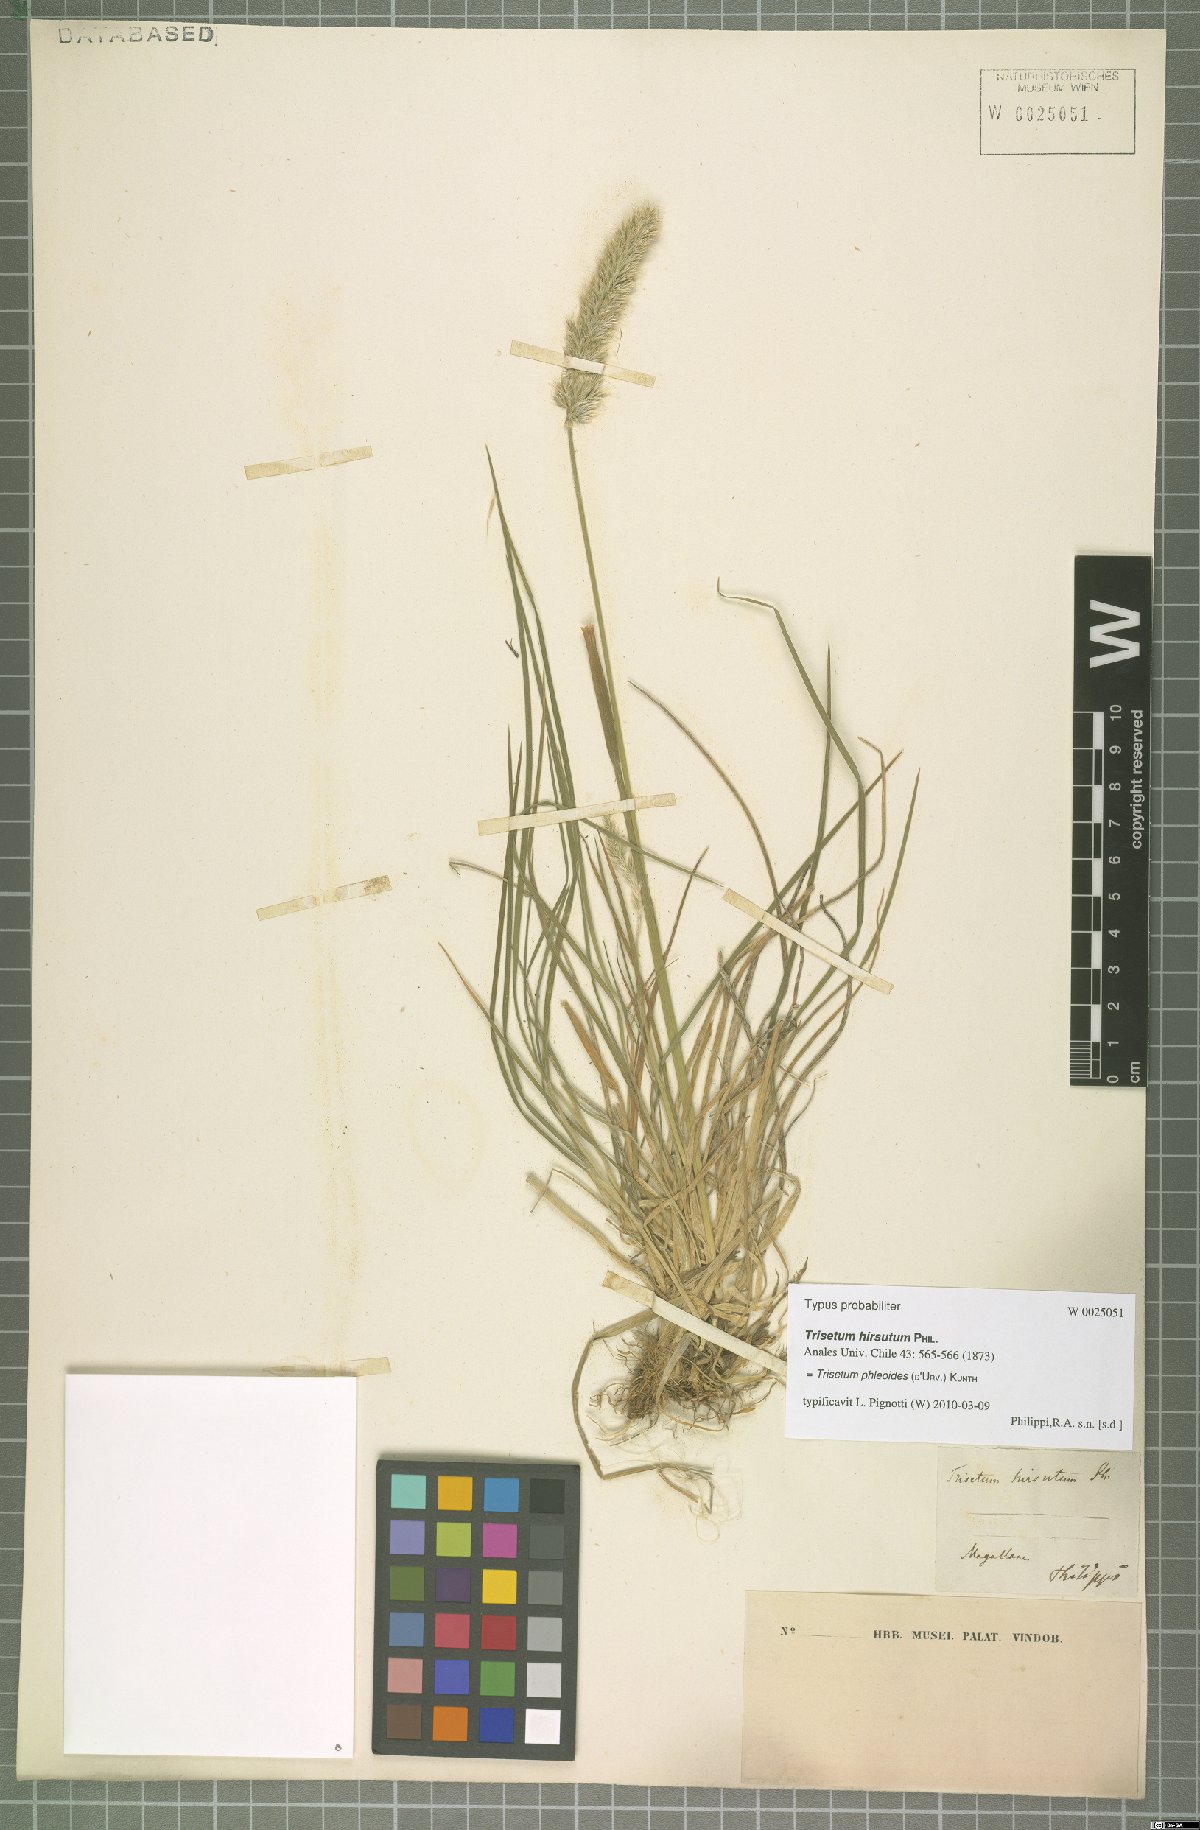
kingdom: Plantae
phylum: Tracheophyta
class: Liliopsida
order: Poales
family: Poaceae
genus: Koeleria
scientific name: Koeleria spicata
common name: Mountain trisetum
